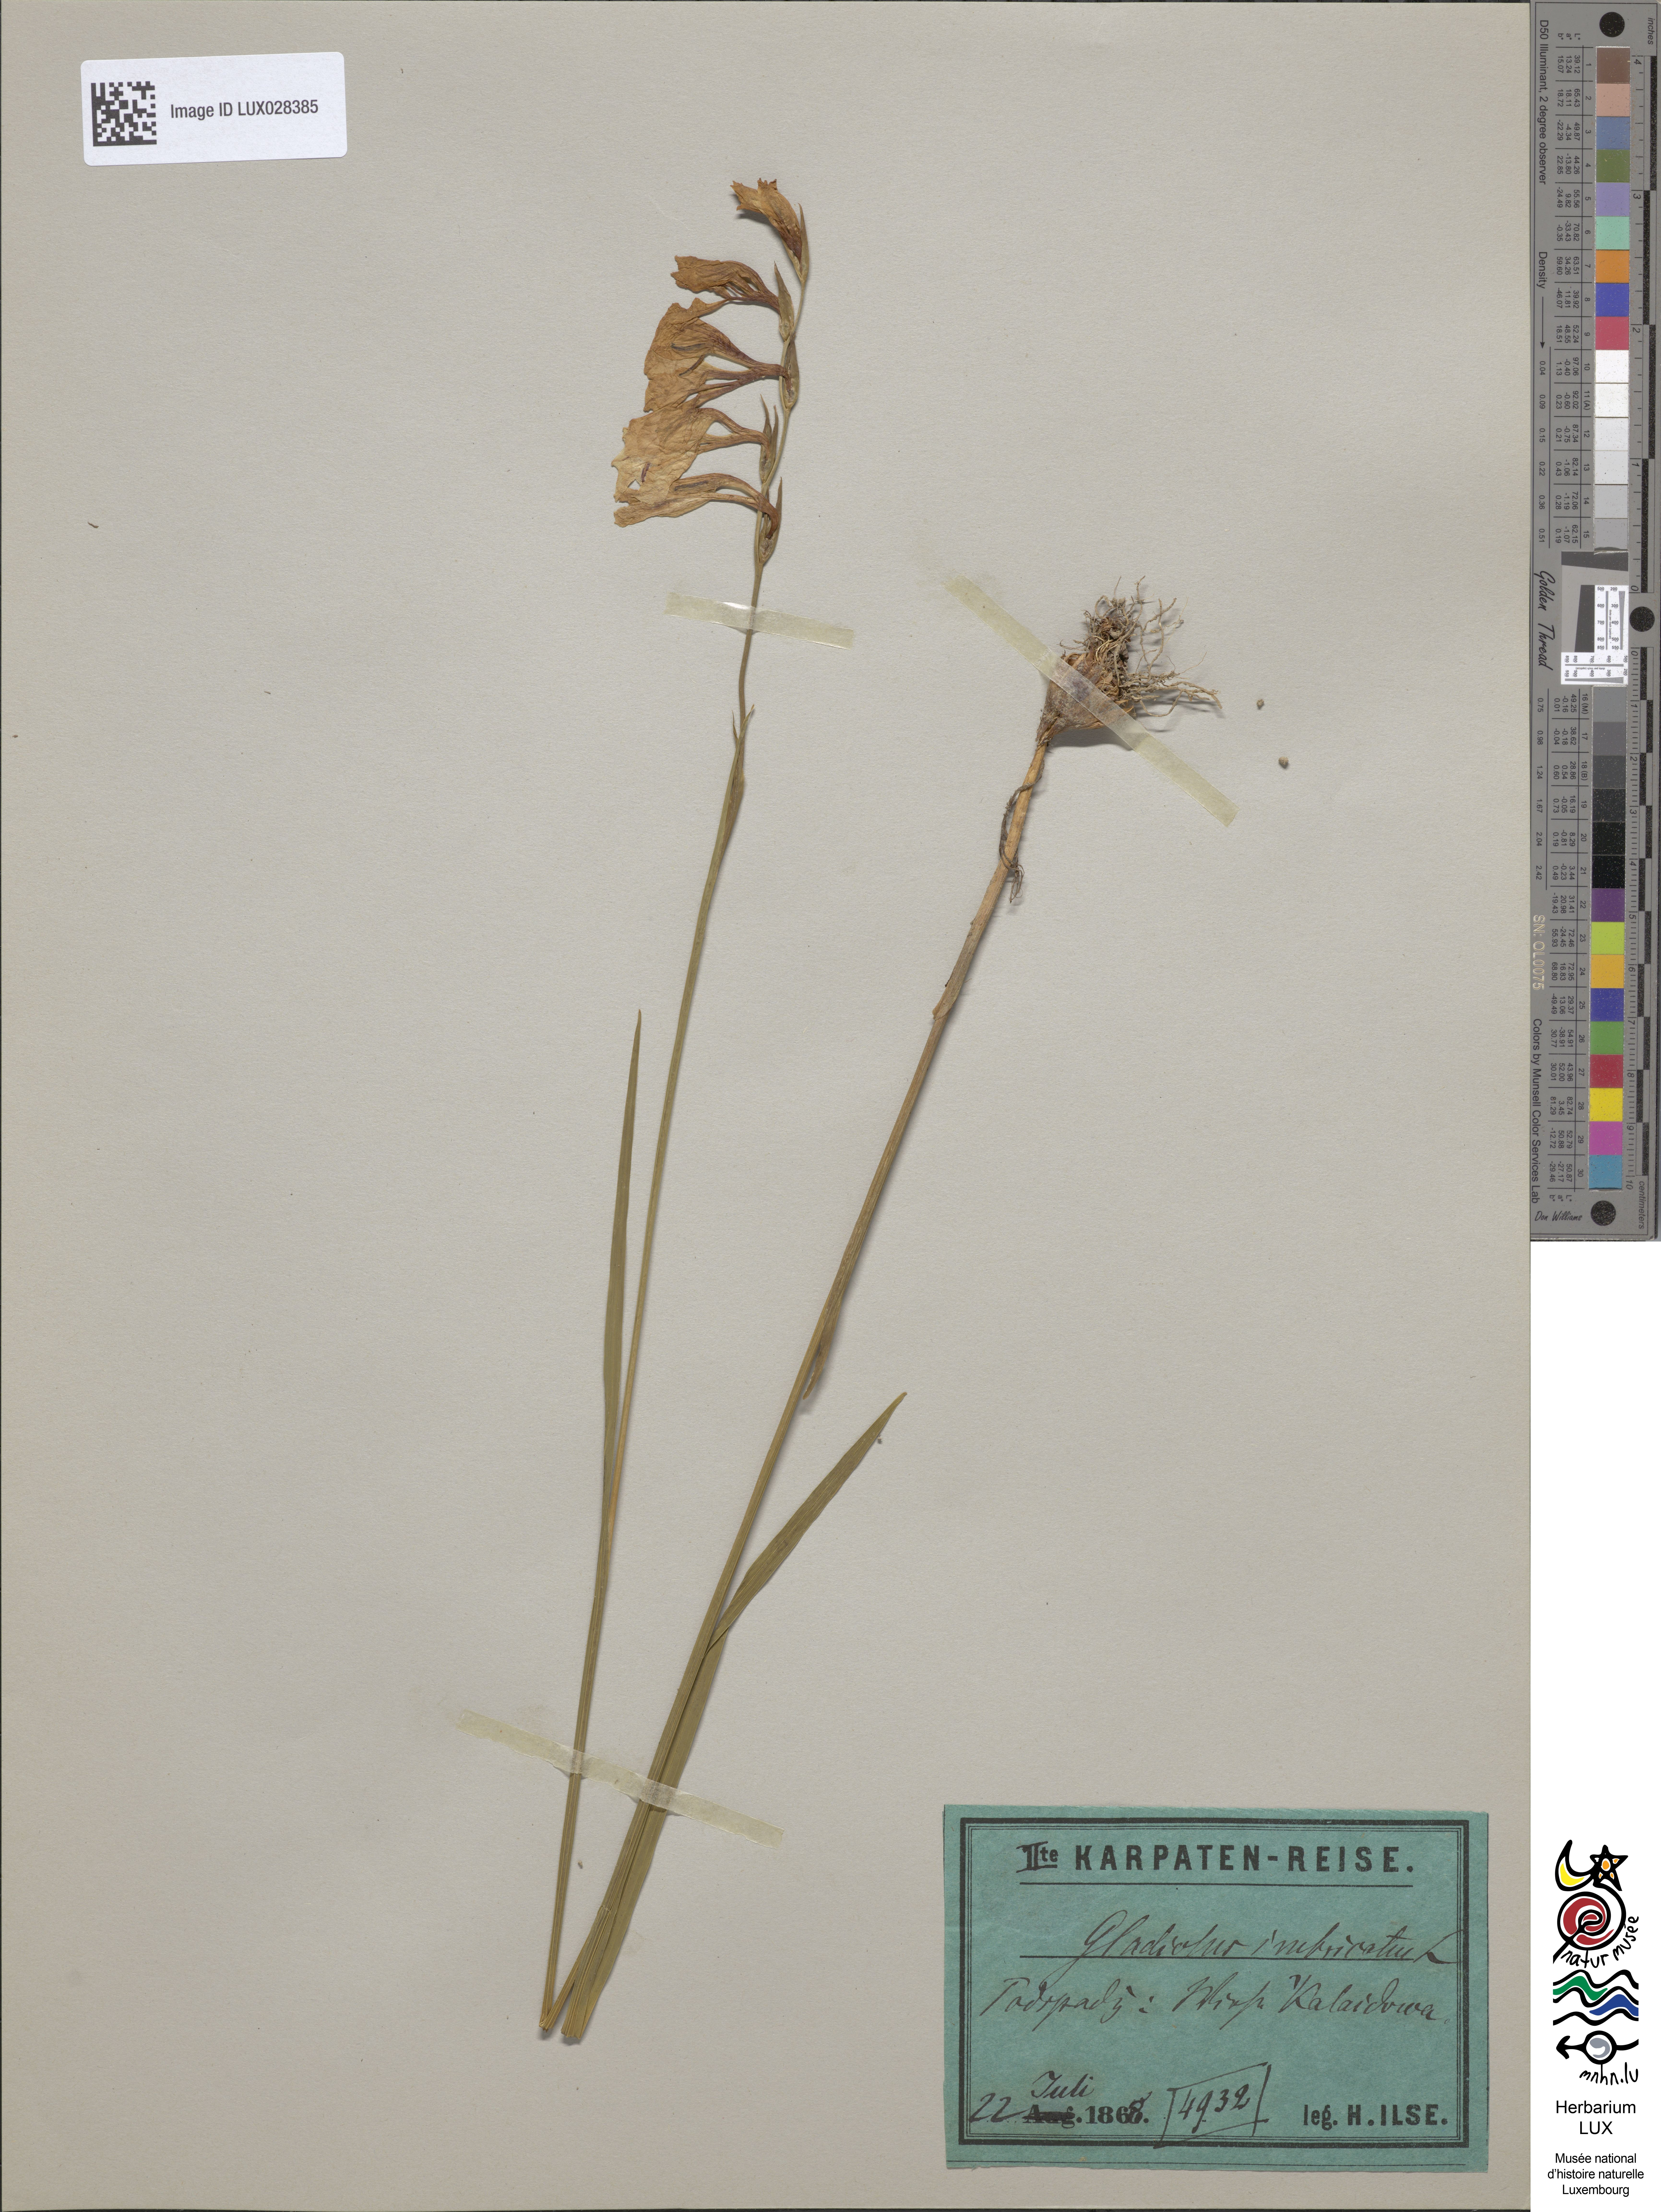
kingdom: Plantae
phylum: Tracheophyta
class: Liliopsida
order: Asparagales
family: Iridaceae
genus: Gladiolus
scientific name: Gladiolus imbricatus
